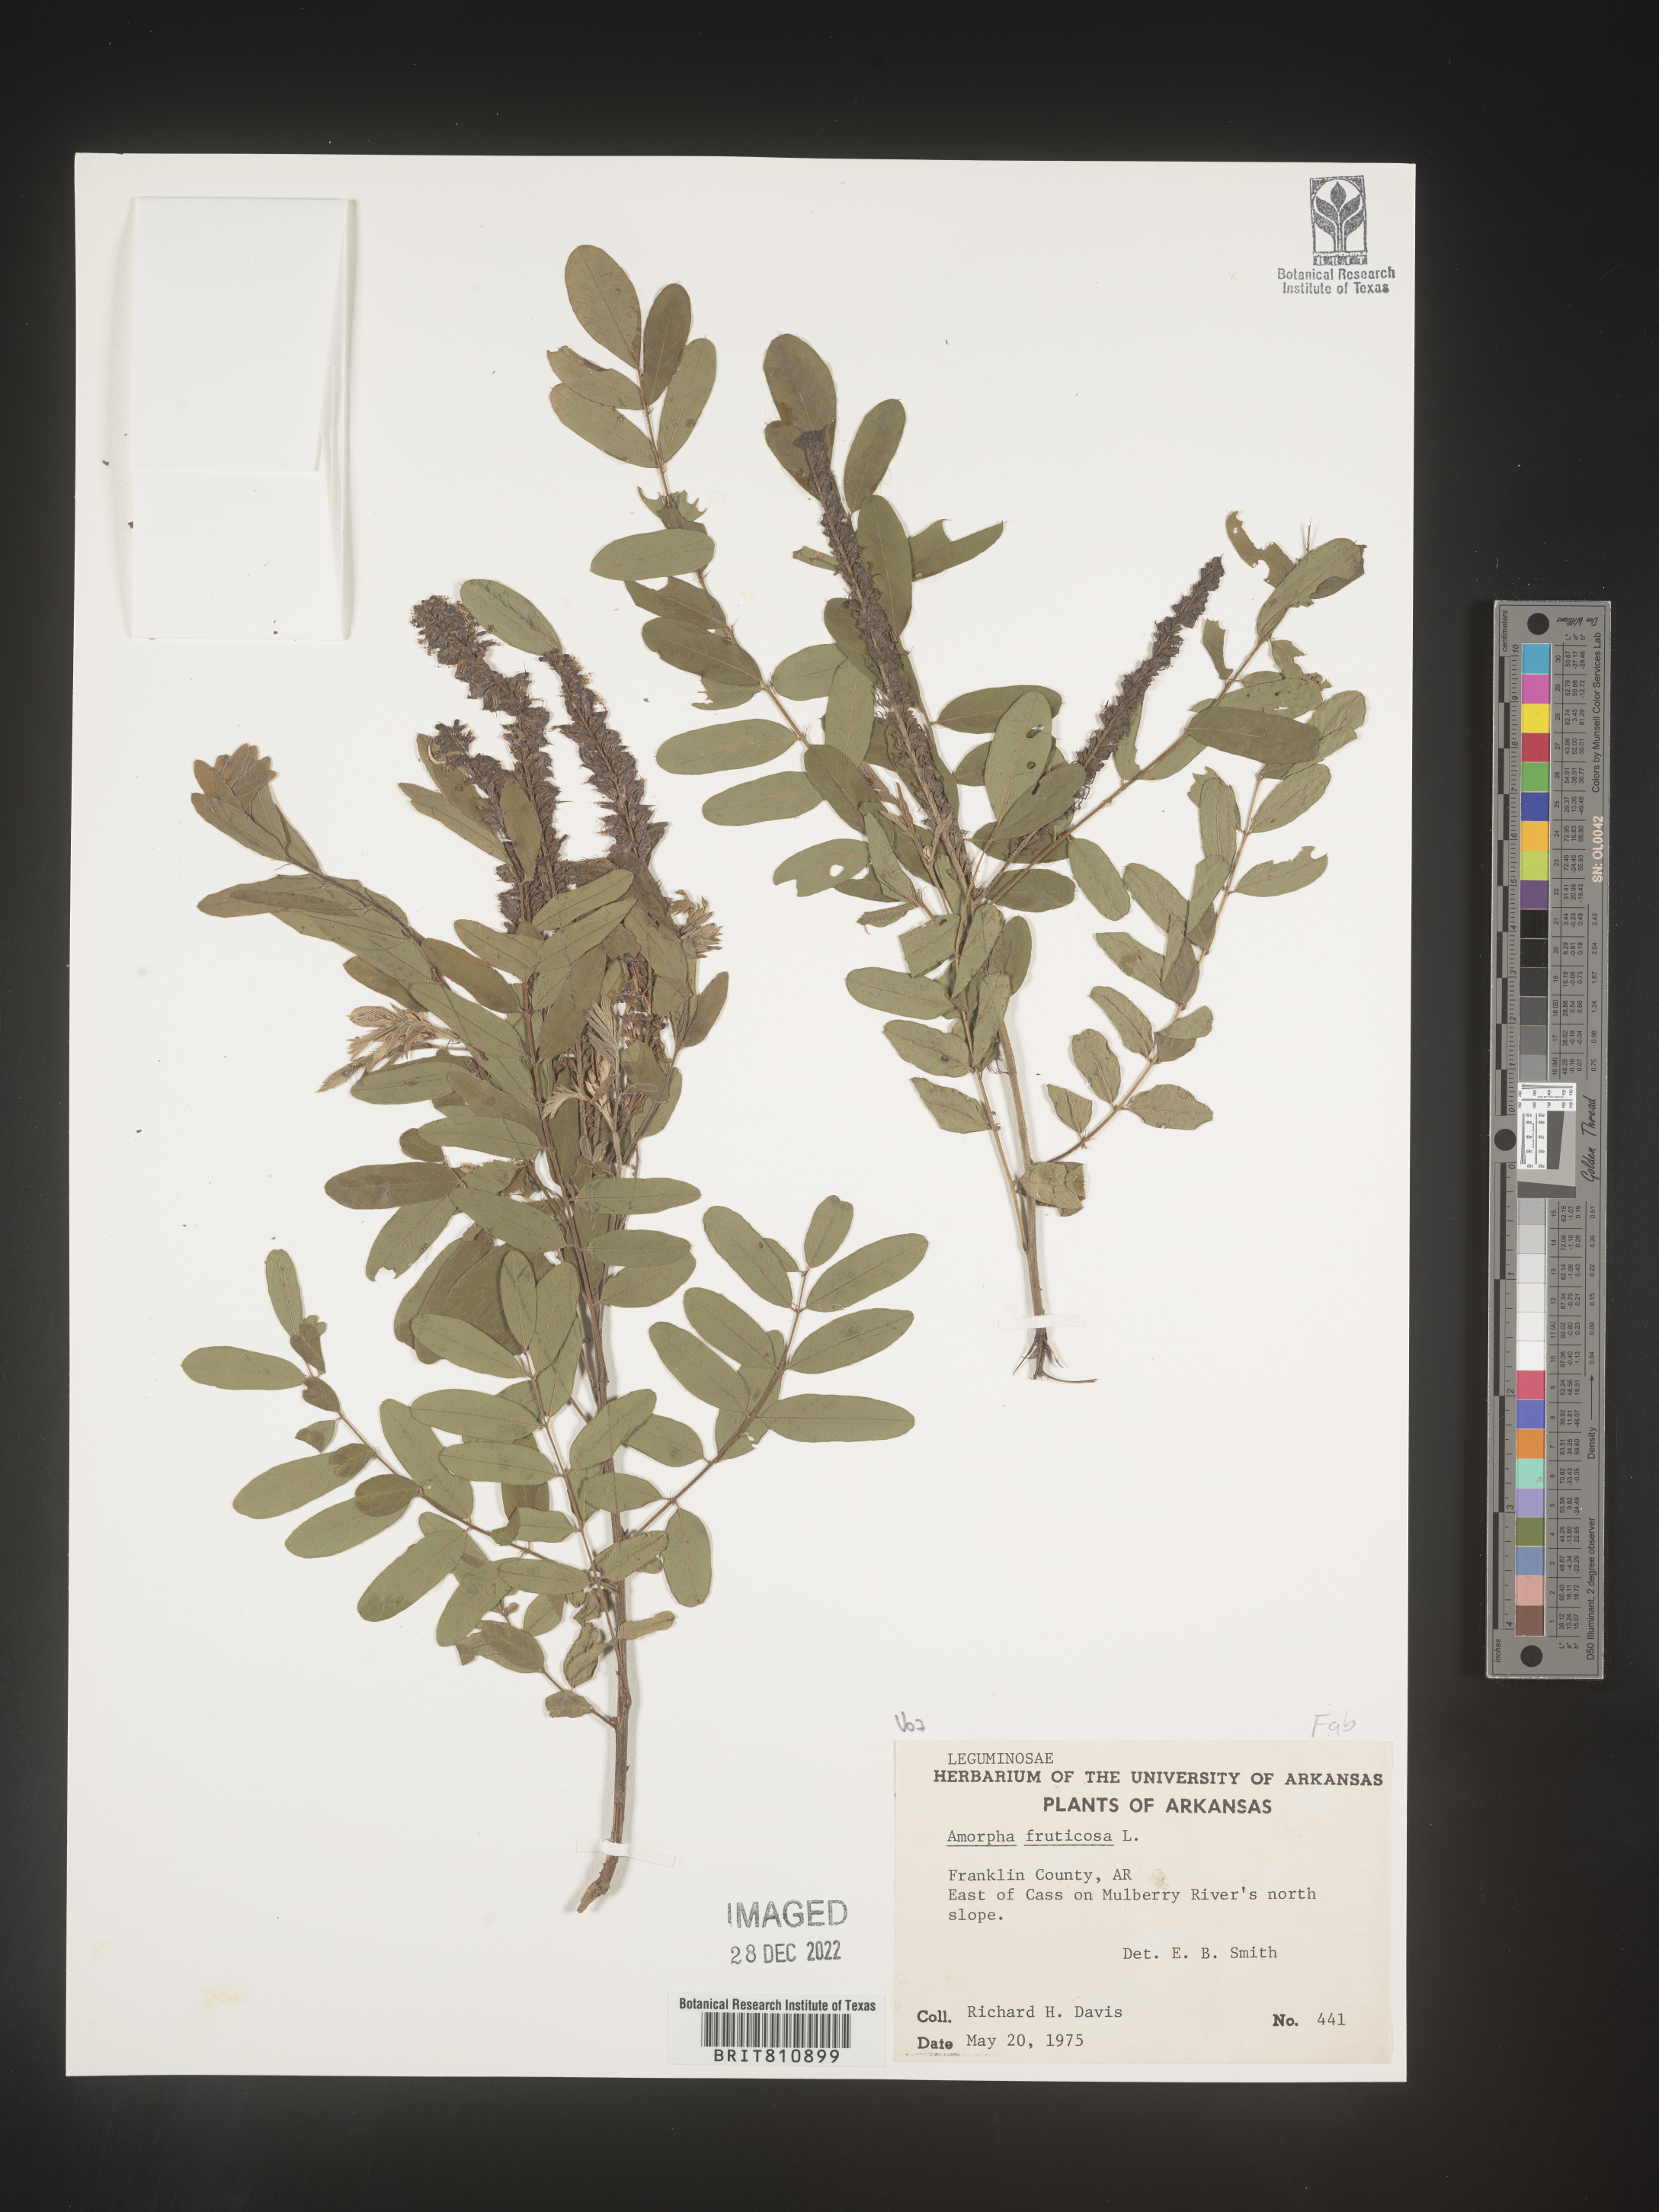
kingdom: Plantae
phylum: Tracheophyta
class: Magnoliopsida
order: Fabales
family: Fabaceae
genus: Amorpha
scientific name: Amorpha fruticosa
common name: False indigo
